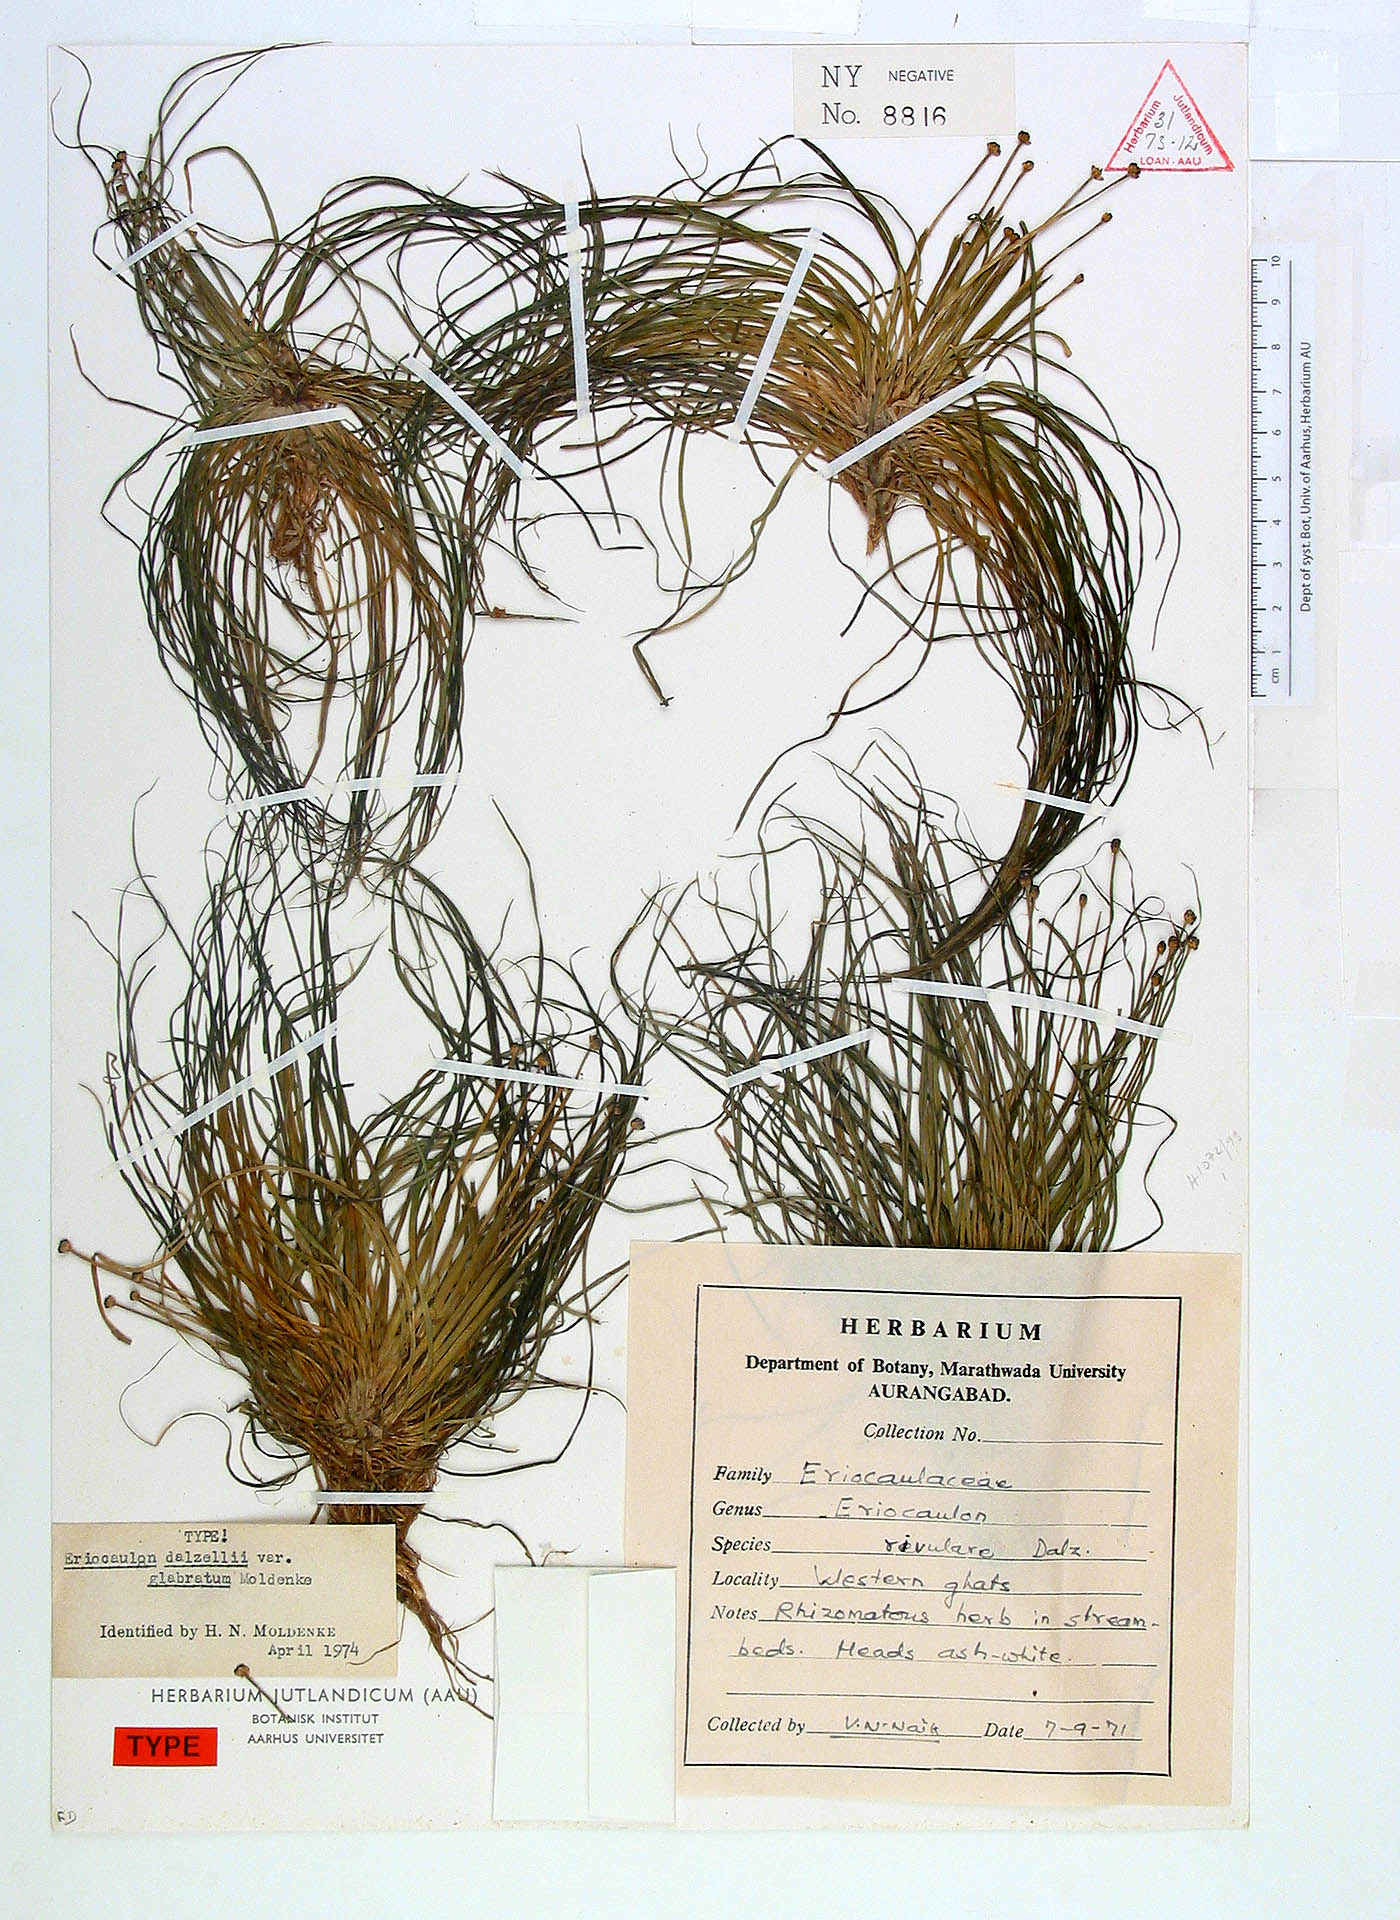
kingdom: Plantae
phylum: Tracheophyta
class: Liliopsida
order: Poales
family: Eriocaulaceae
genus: Eriocaulon
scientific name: Eriocaulon dalzellii
